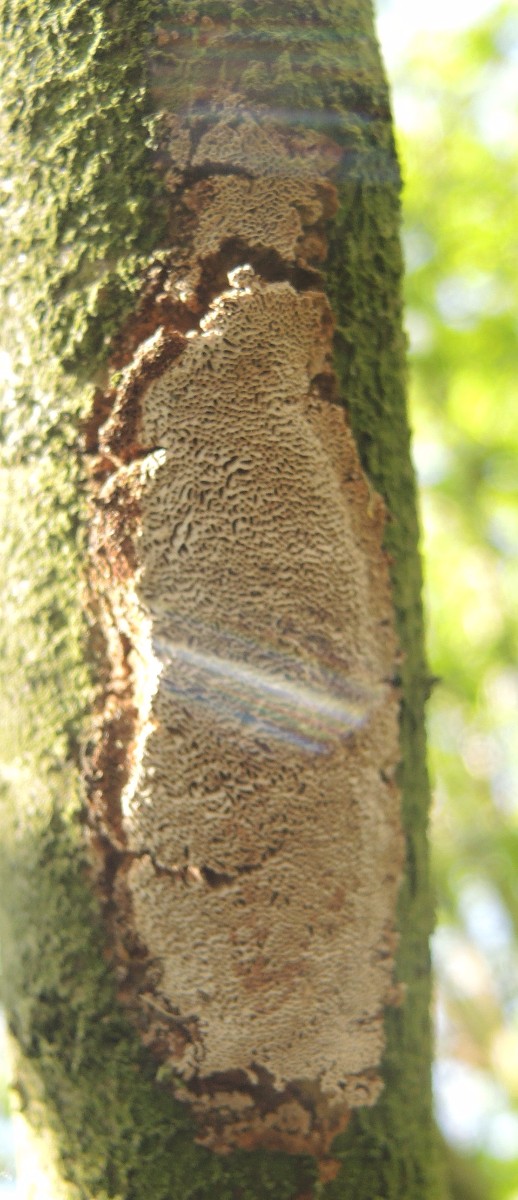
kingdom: Fungi
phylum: Basidiomycota
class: Agaricomycetes
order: Hymenochaetales
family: Hymenochaetaceae
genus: Fuscoporia
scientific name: Fuscoporia contigua
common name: grov ildporesvamp
